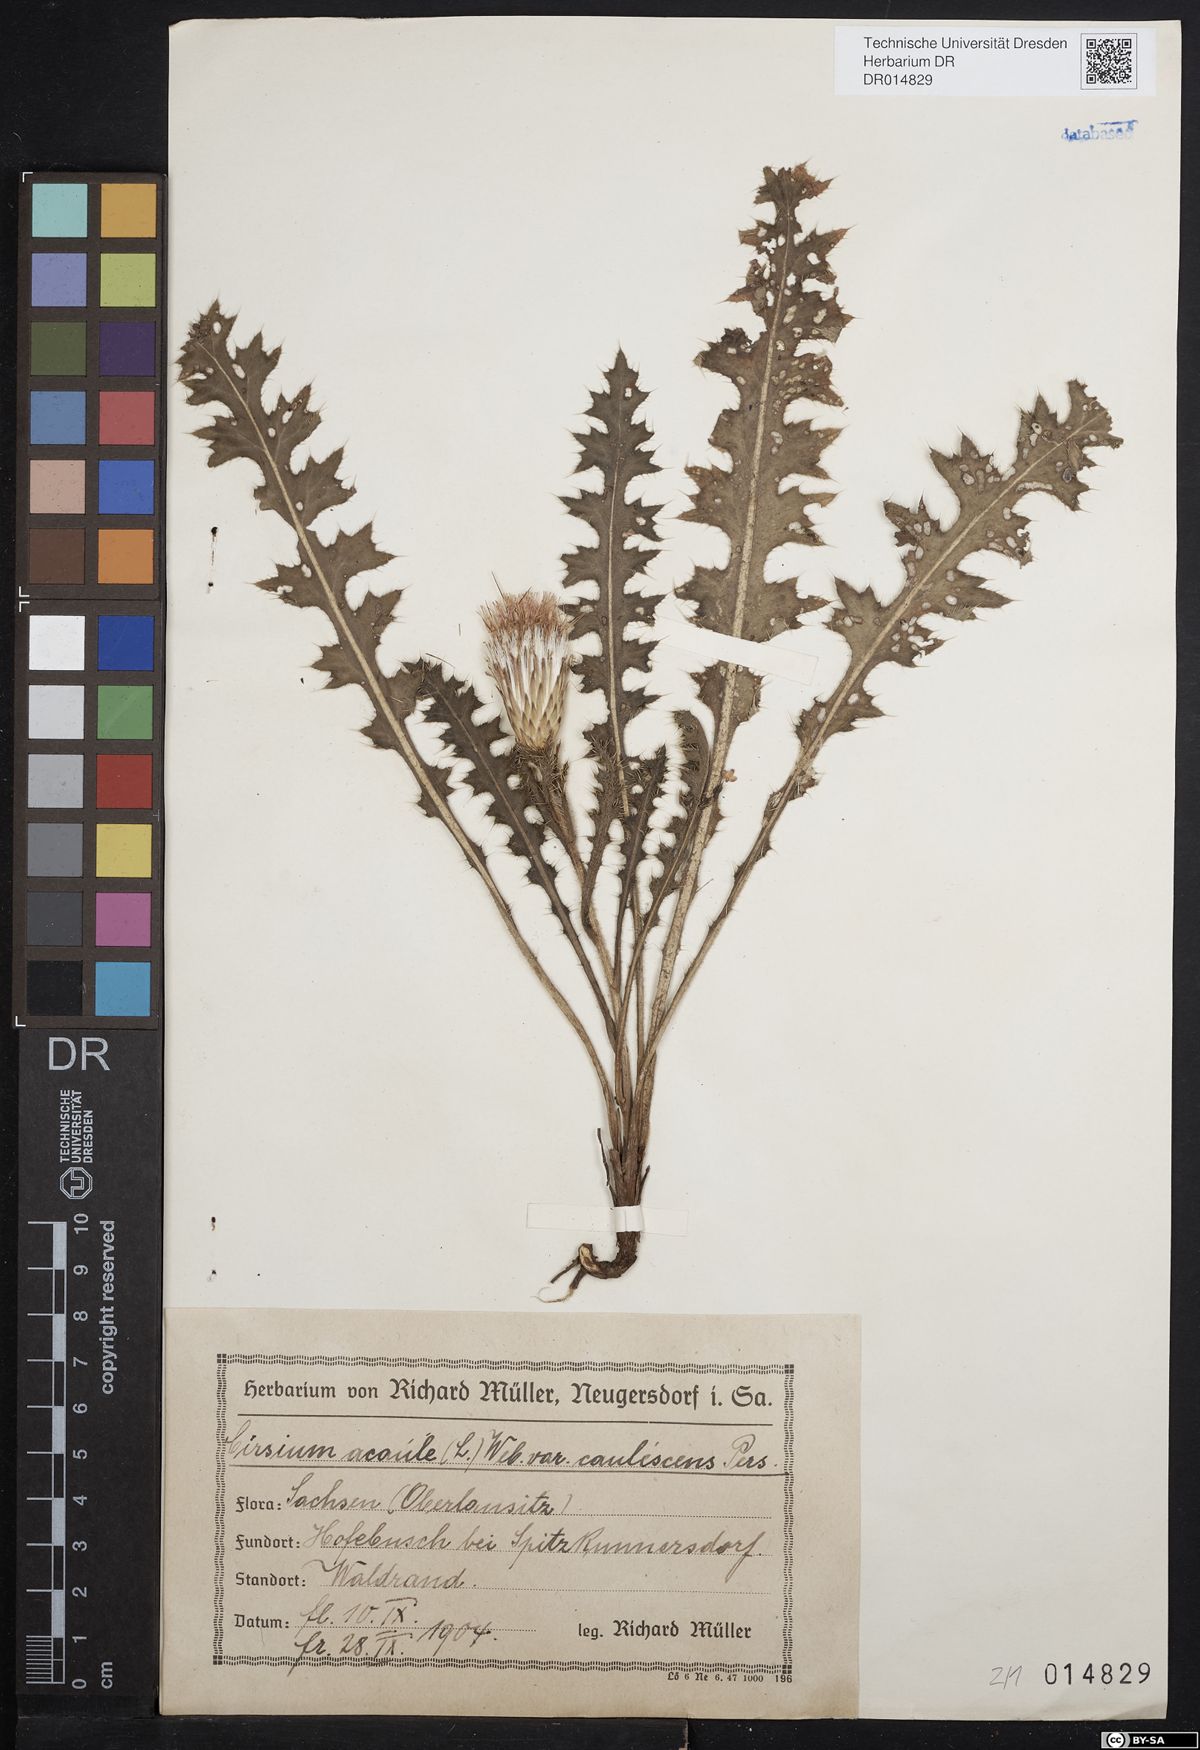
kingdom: Plantae
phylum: Tracheophyta
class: Magnoliopsida
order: Asterales
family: Asteraceae
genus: Cirsium
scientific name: Cirsium acaulon
